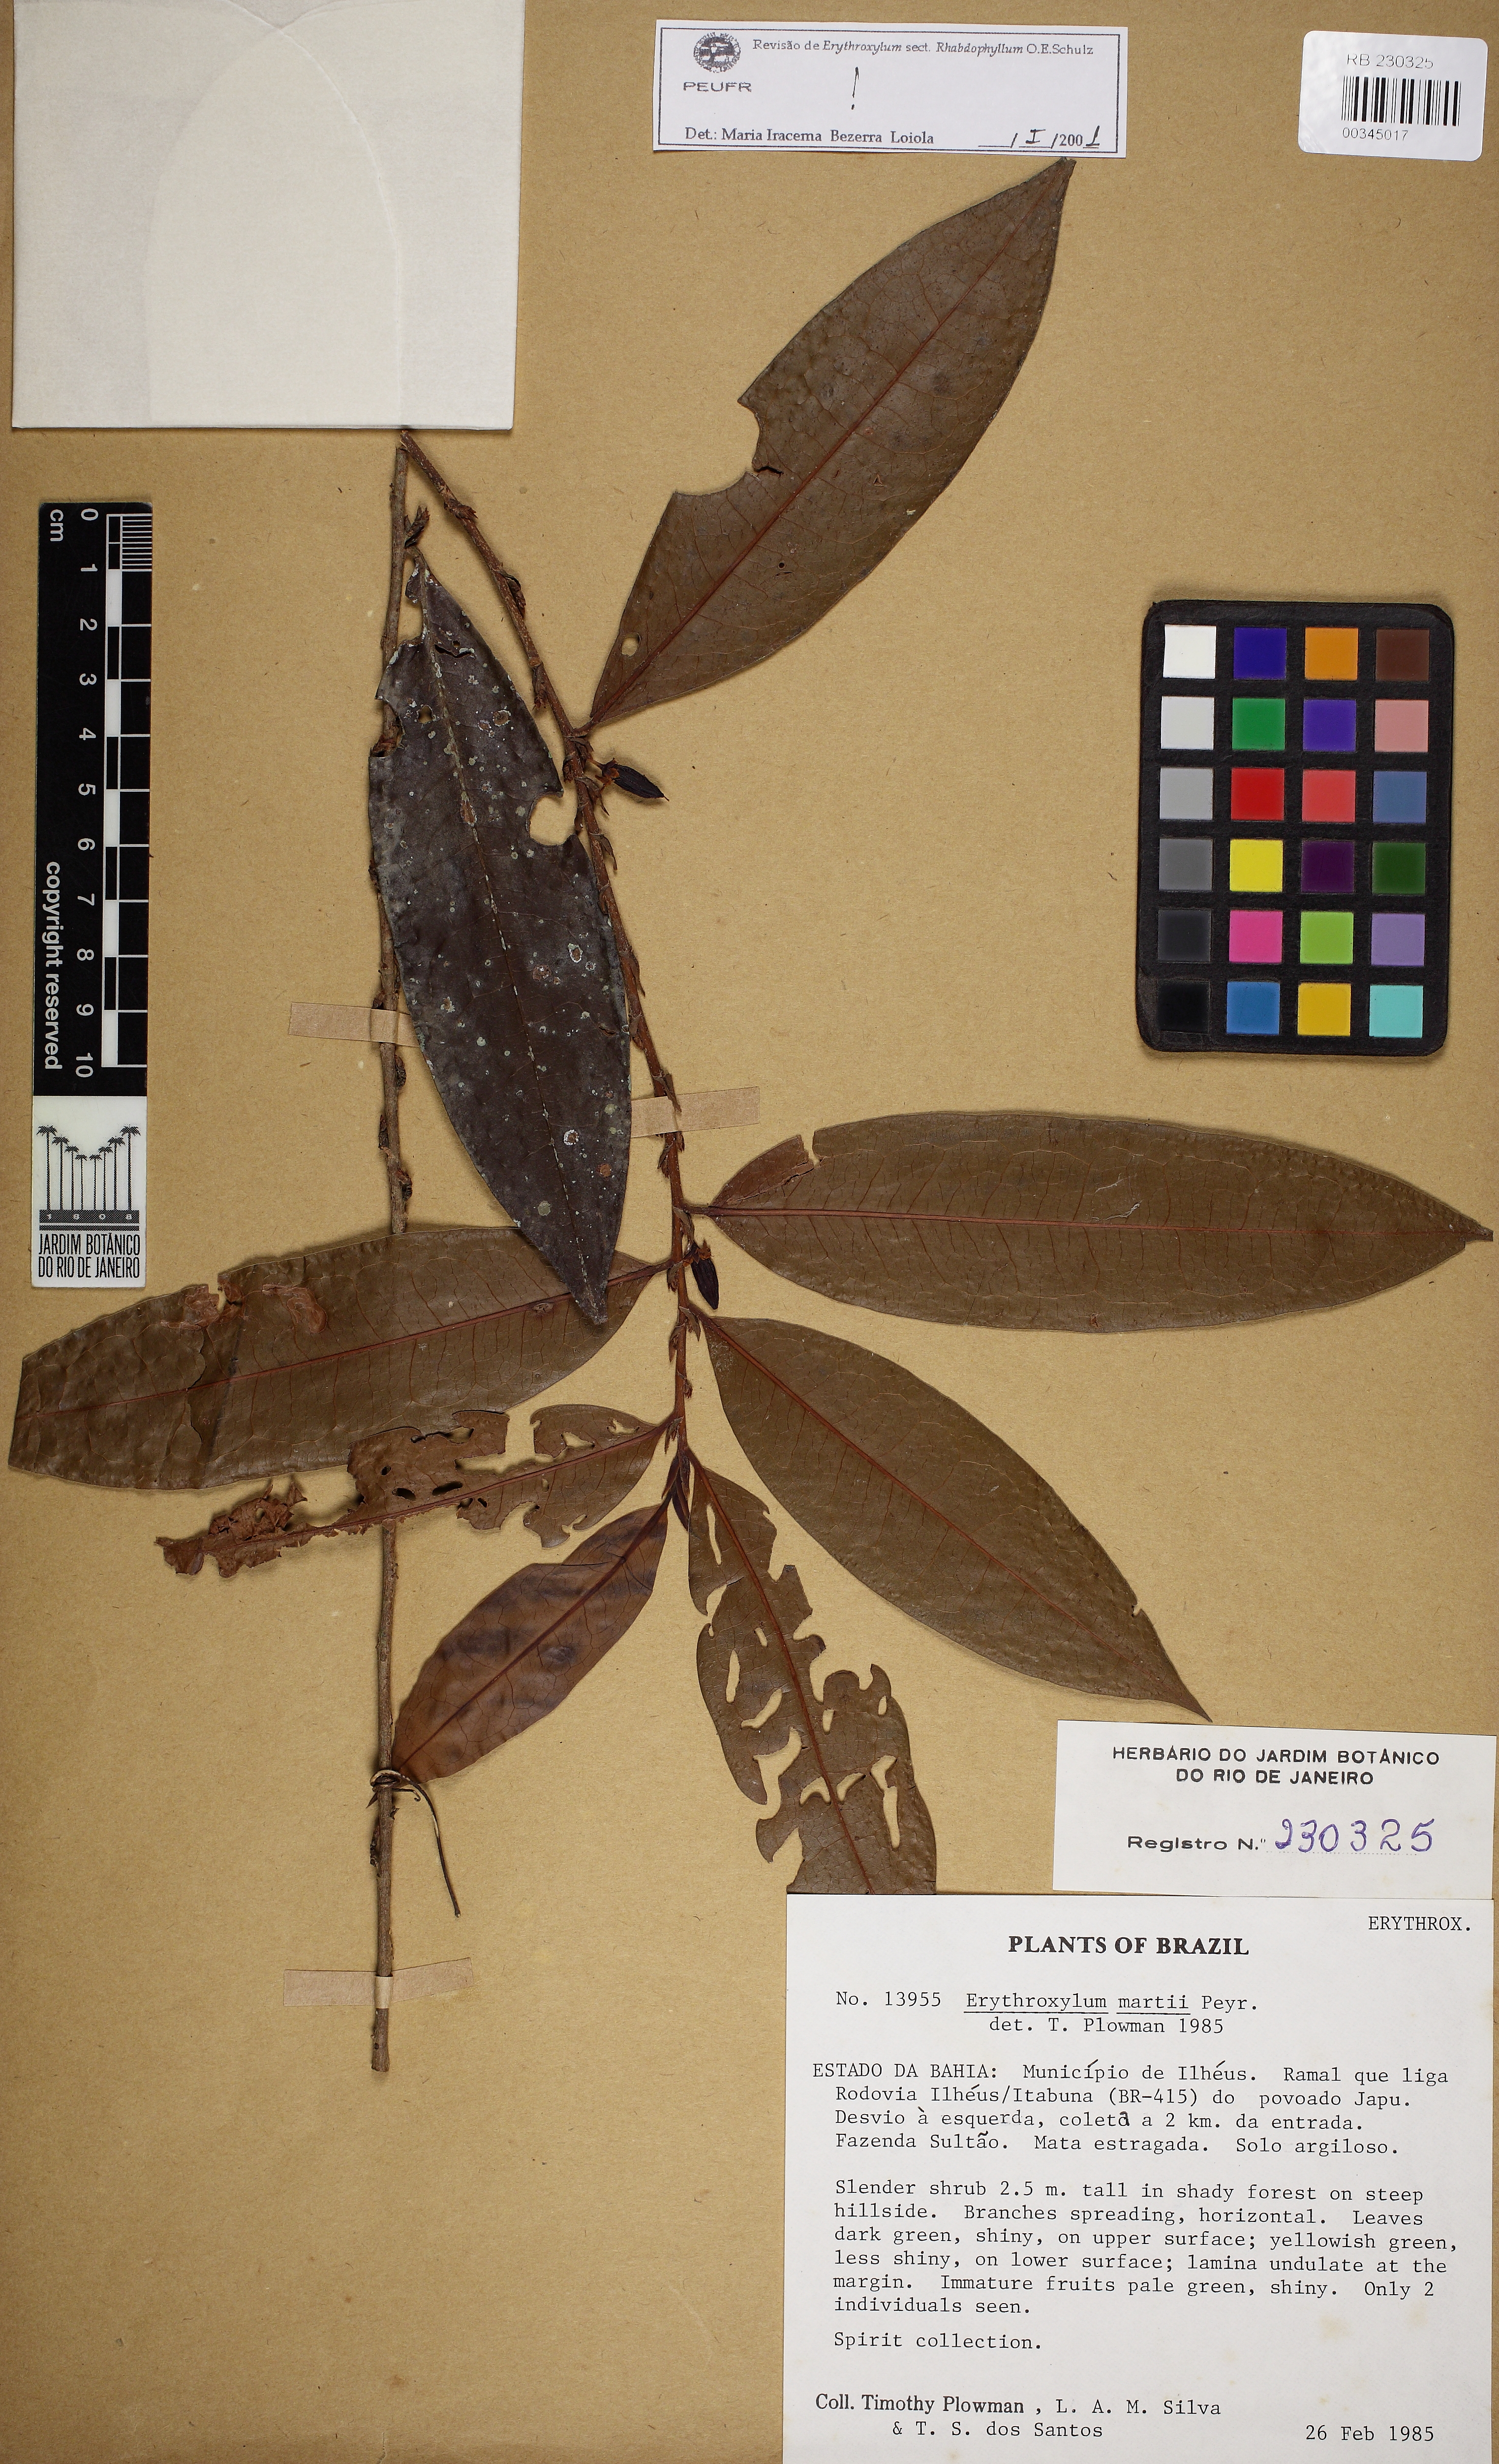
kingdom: Plantae
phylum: Tracheophyta
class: Magnoliopsida
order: Malpighiales
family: Erythroxylaceae
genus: Erythroxylum
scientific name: Erythroxylum martii
